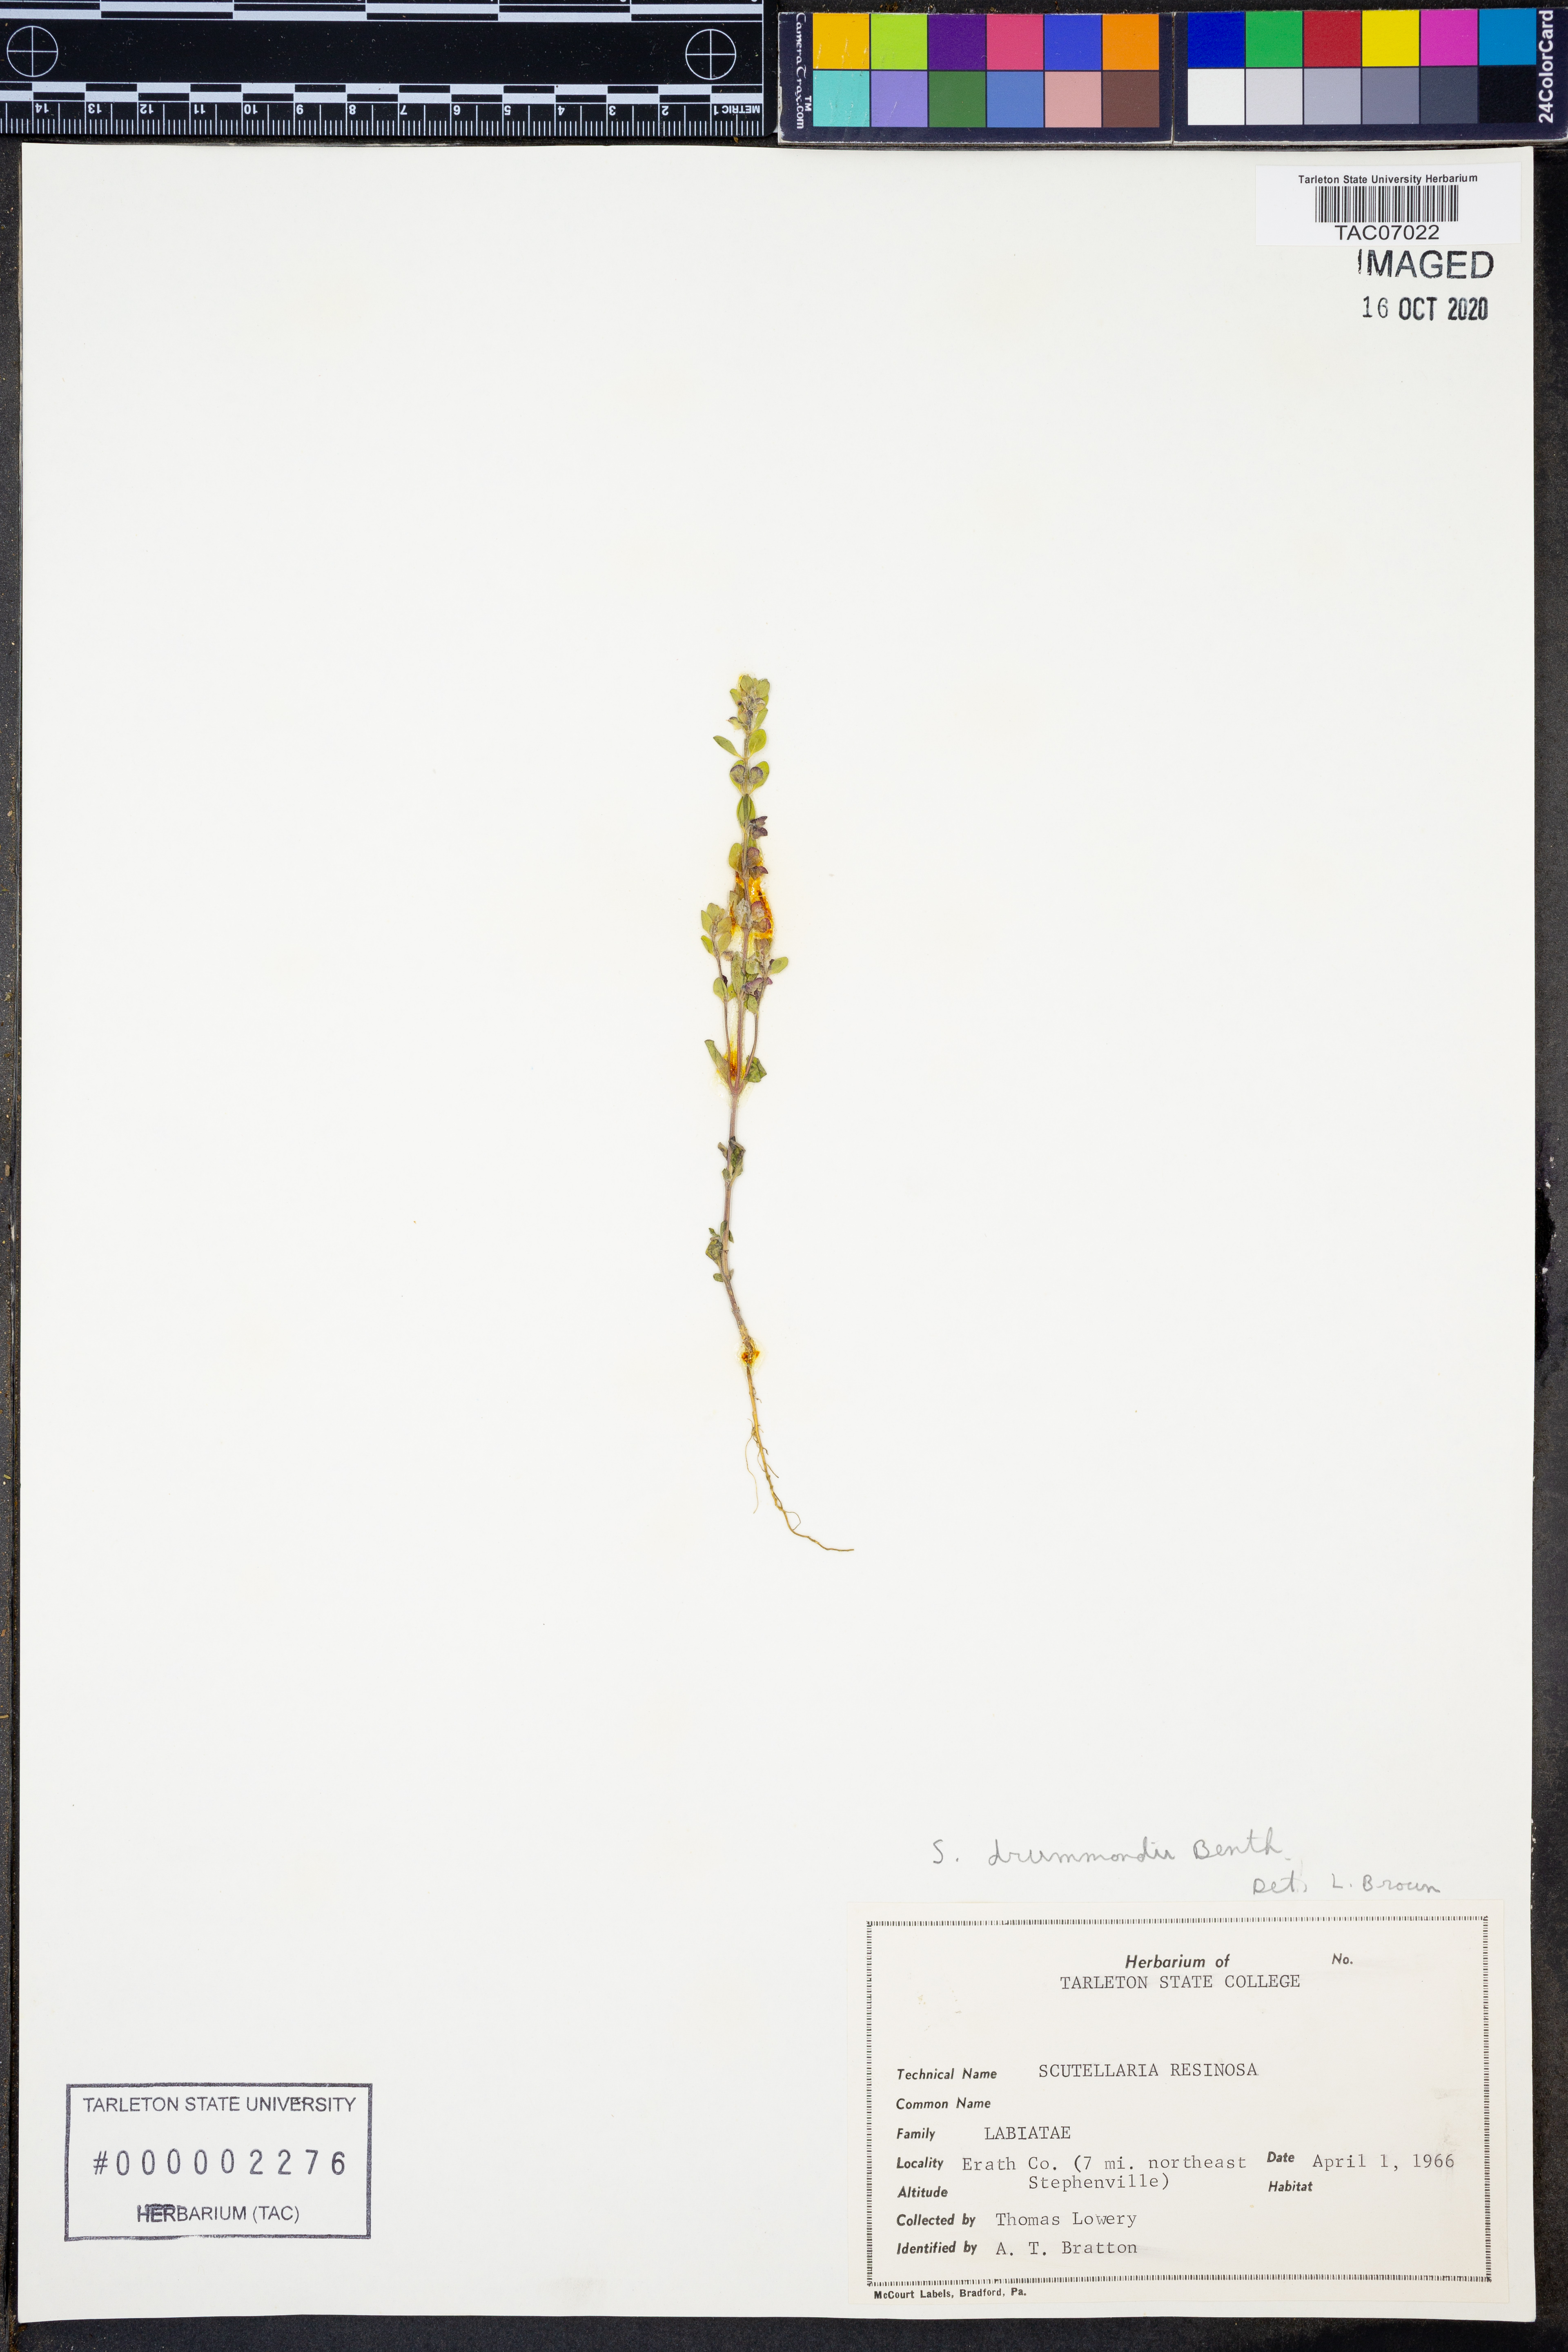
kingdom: Plantae
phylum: Tracheophyta
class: Magnoliopsida
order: Lamiales
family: Lamiaceae
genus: Scutellaria
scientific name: Scutellaria drummondii
